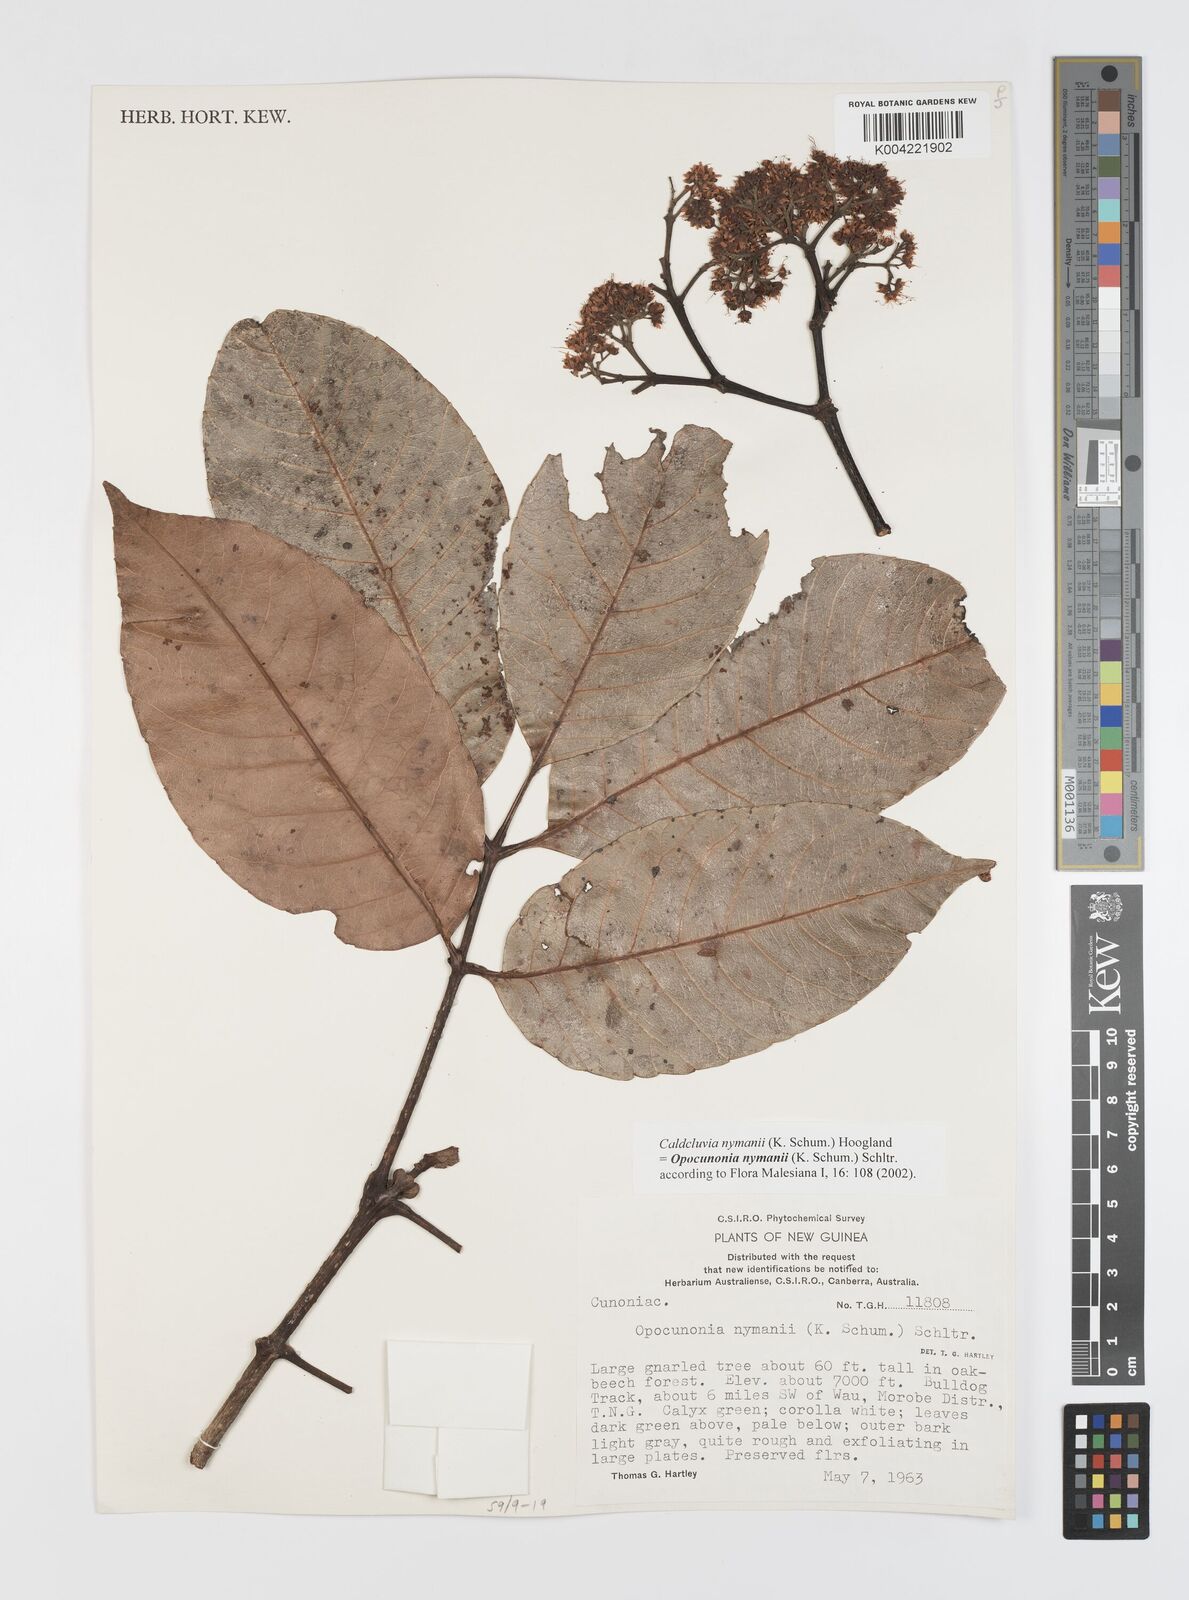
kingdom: Plantae
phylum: Tracheophyta
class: Magnoliopsida
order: Oxalidales
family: Cunoniaceae
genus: Opocunonia
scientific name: Opocunonia nymanii
